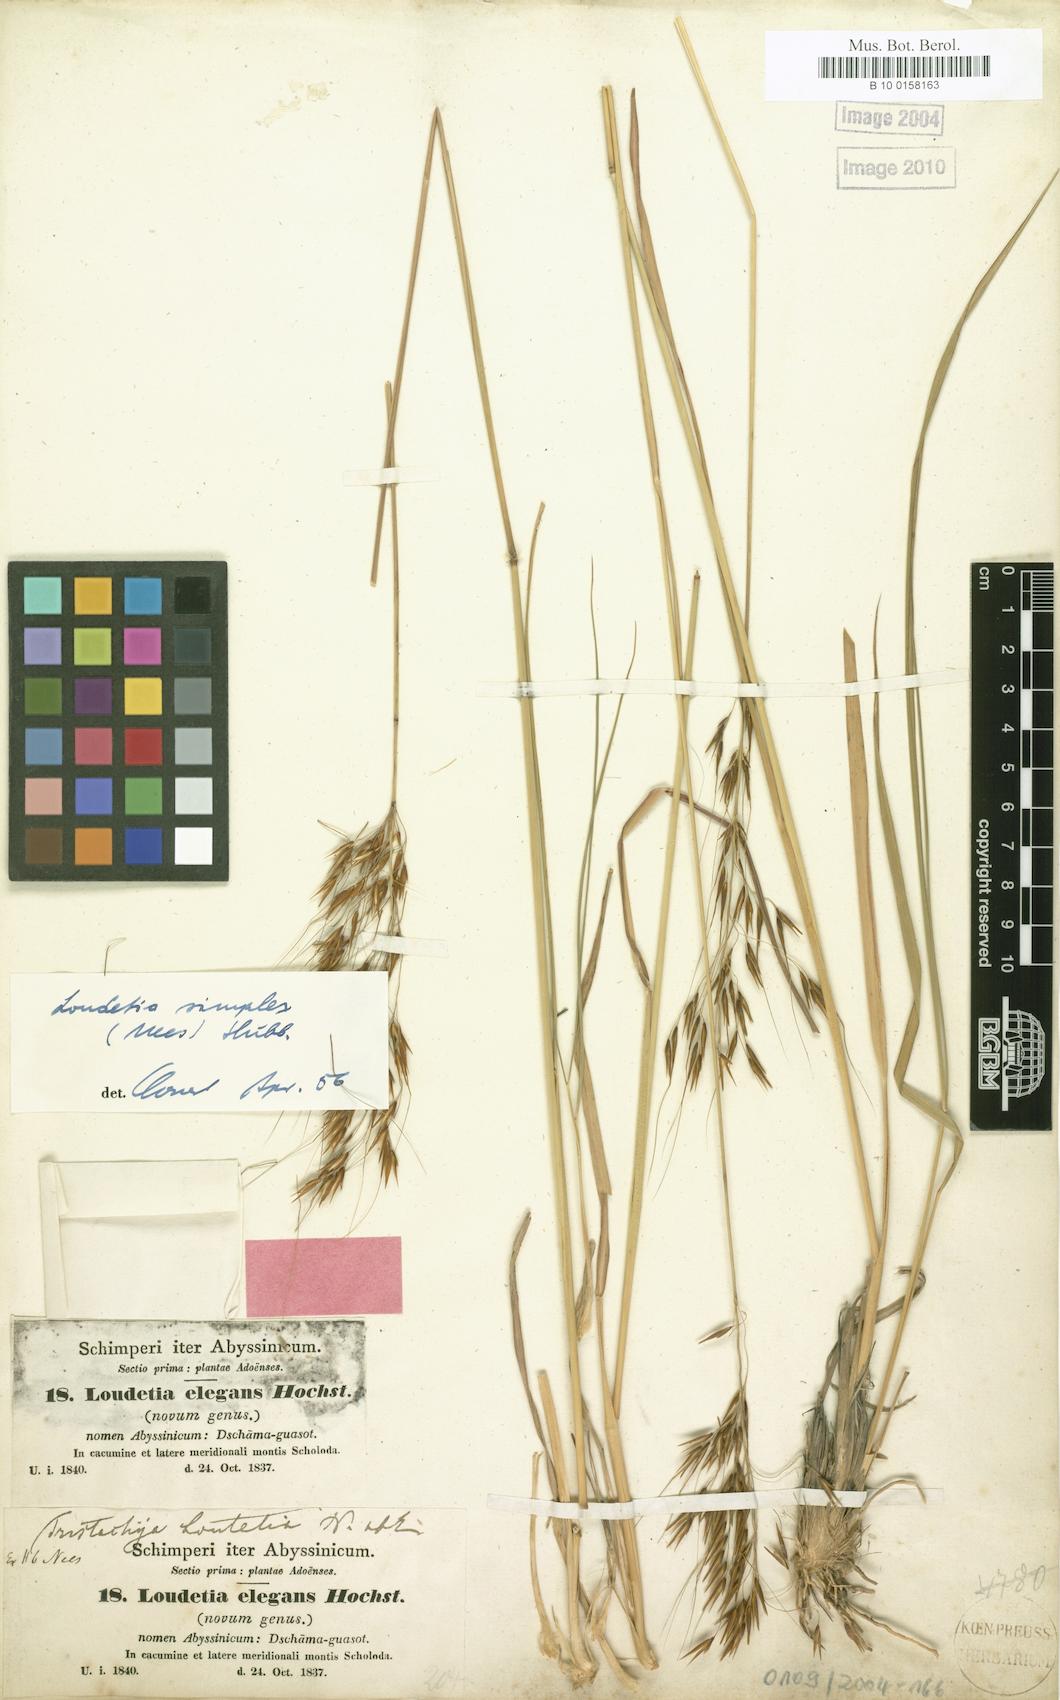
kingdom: Plantae
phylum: Tracheophyta
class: Liliopsida
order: Poales
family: Poaceae
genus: Loudetia
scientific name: Loudetia simplex
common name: Common russet grass
